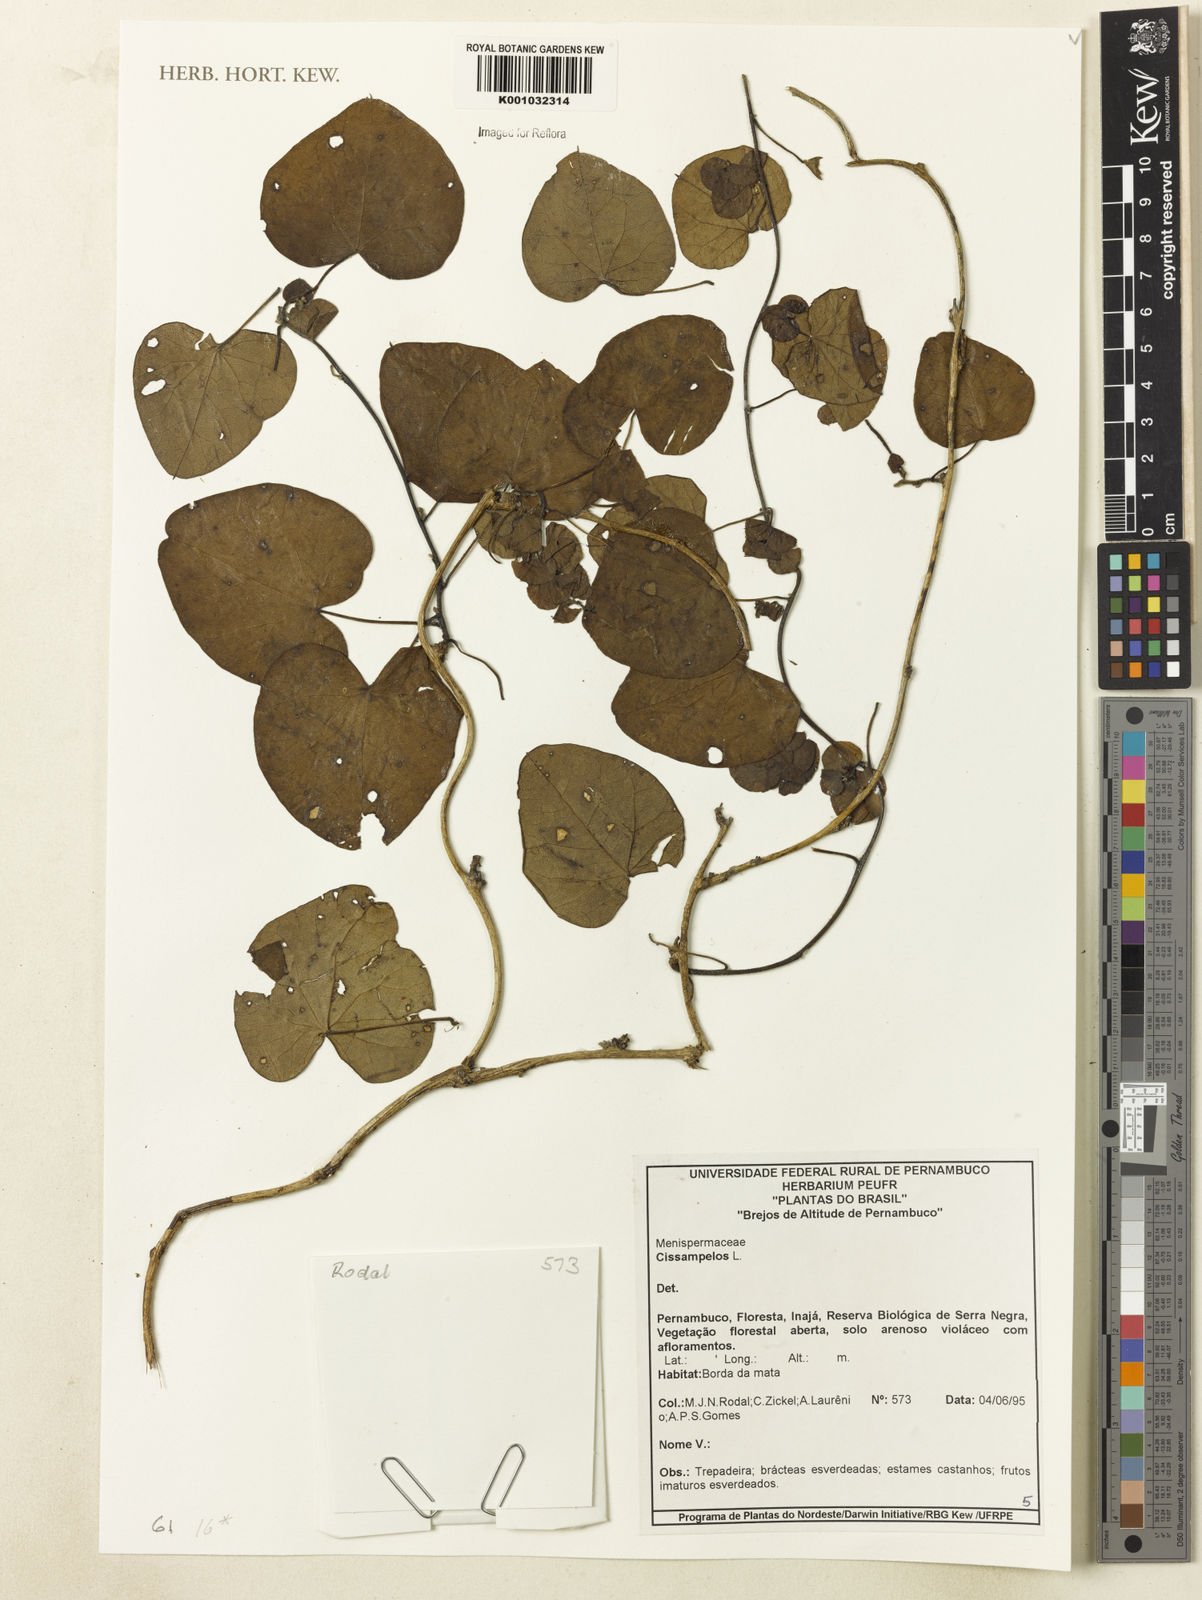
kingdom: Plantae
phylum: Tracheophyta
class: Magnoliopsida
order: Ranunculales
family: Menispermaceae
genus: Cissampelos
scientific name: Cissampelos
